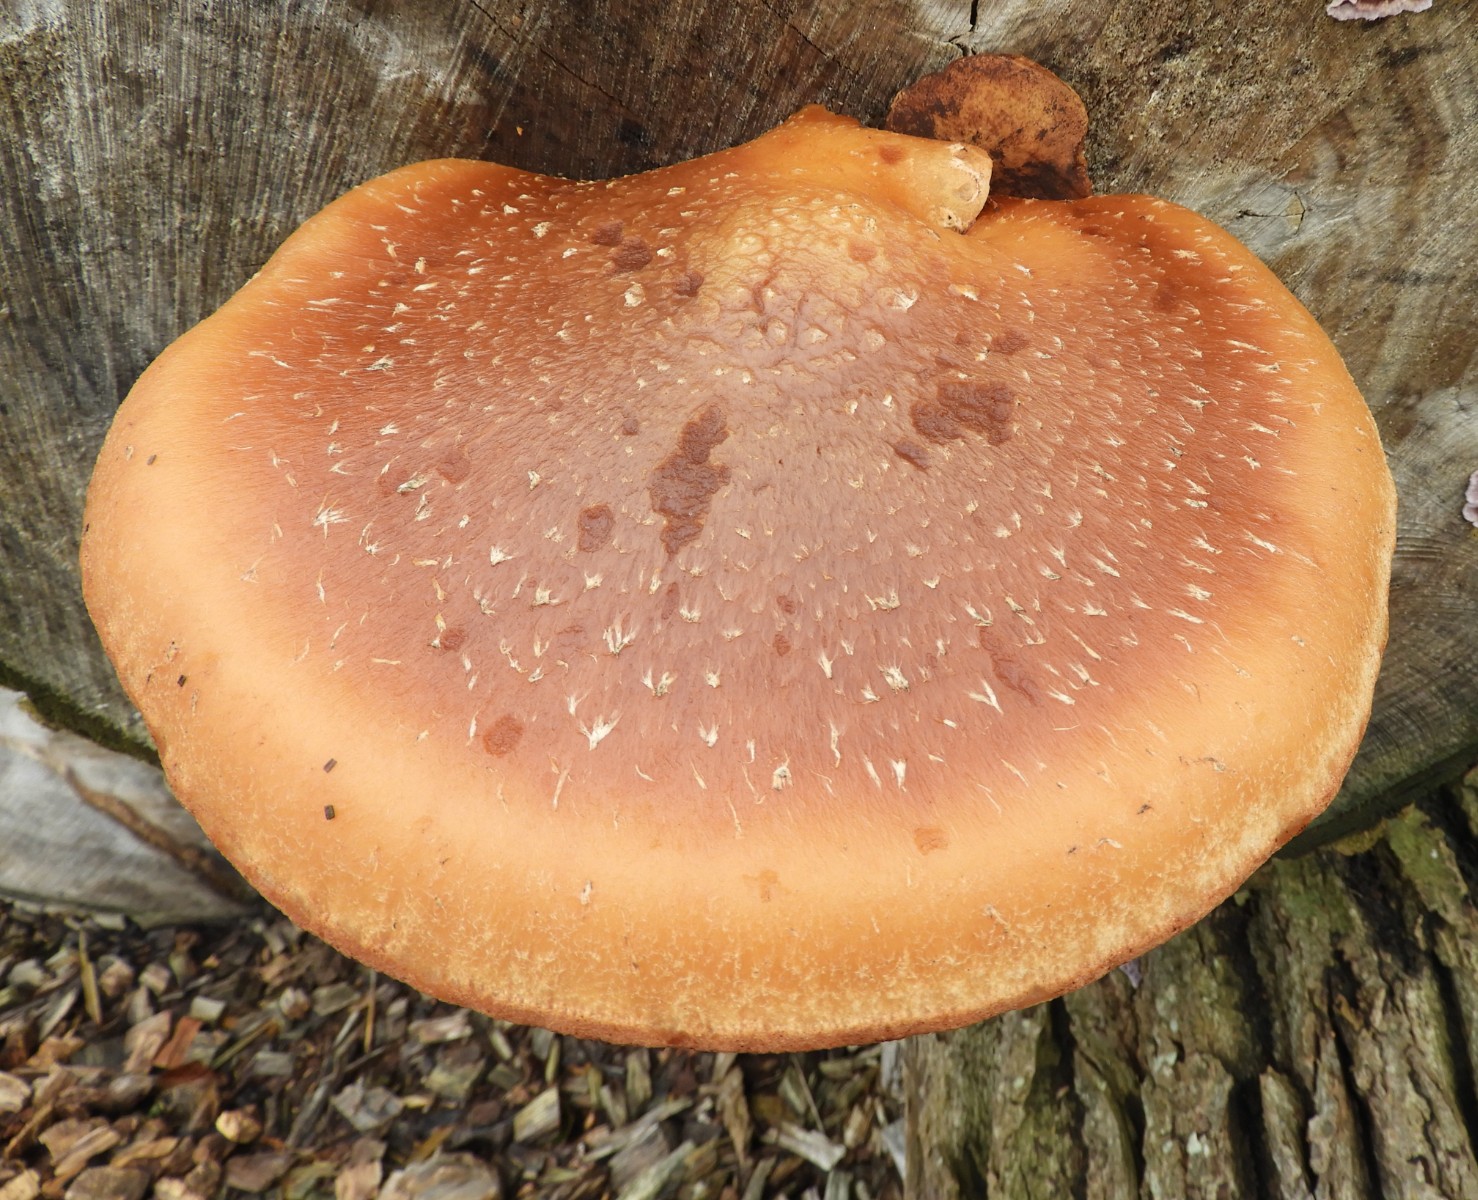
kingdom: Fungi
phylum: Basidiomycota
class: Agaricomycetes
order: Agaricales
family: Strophariaceae
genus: Pholiota
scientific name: Pholiota populnea
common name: poppel-kæmpeskælhat
